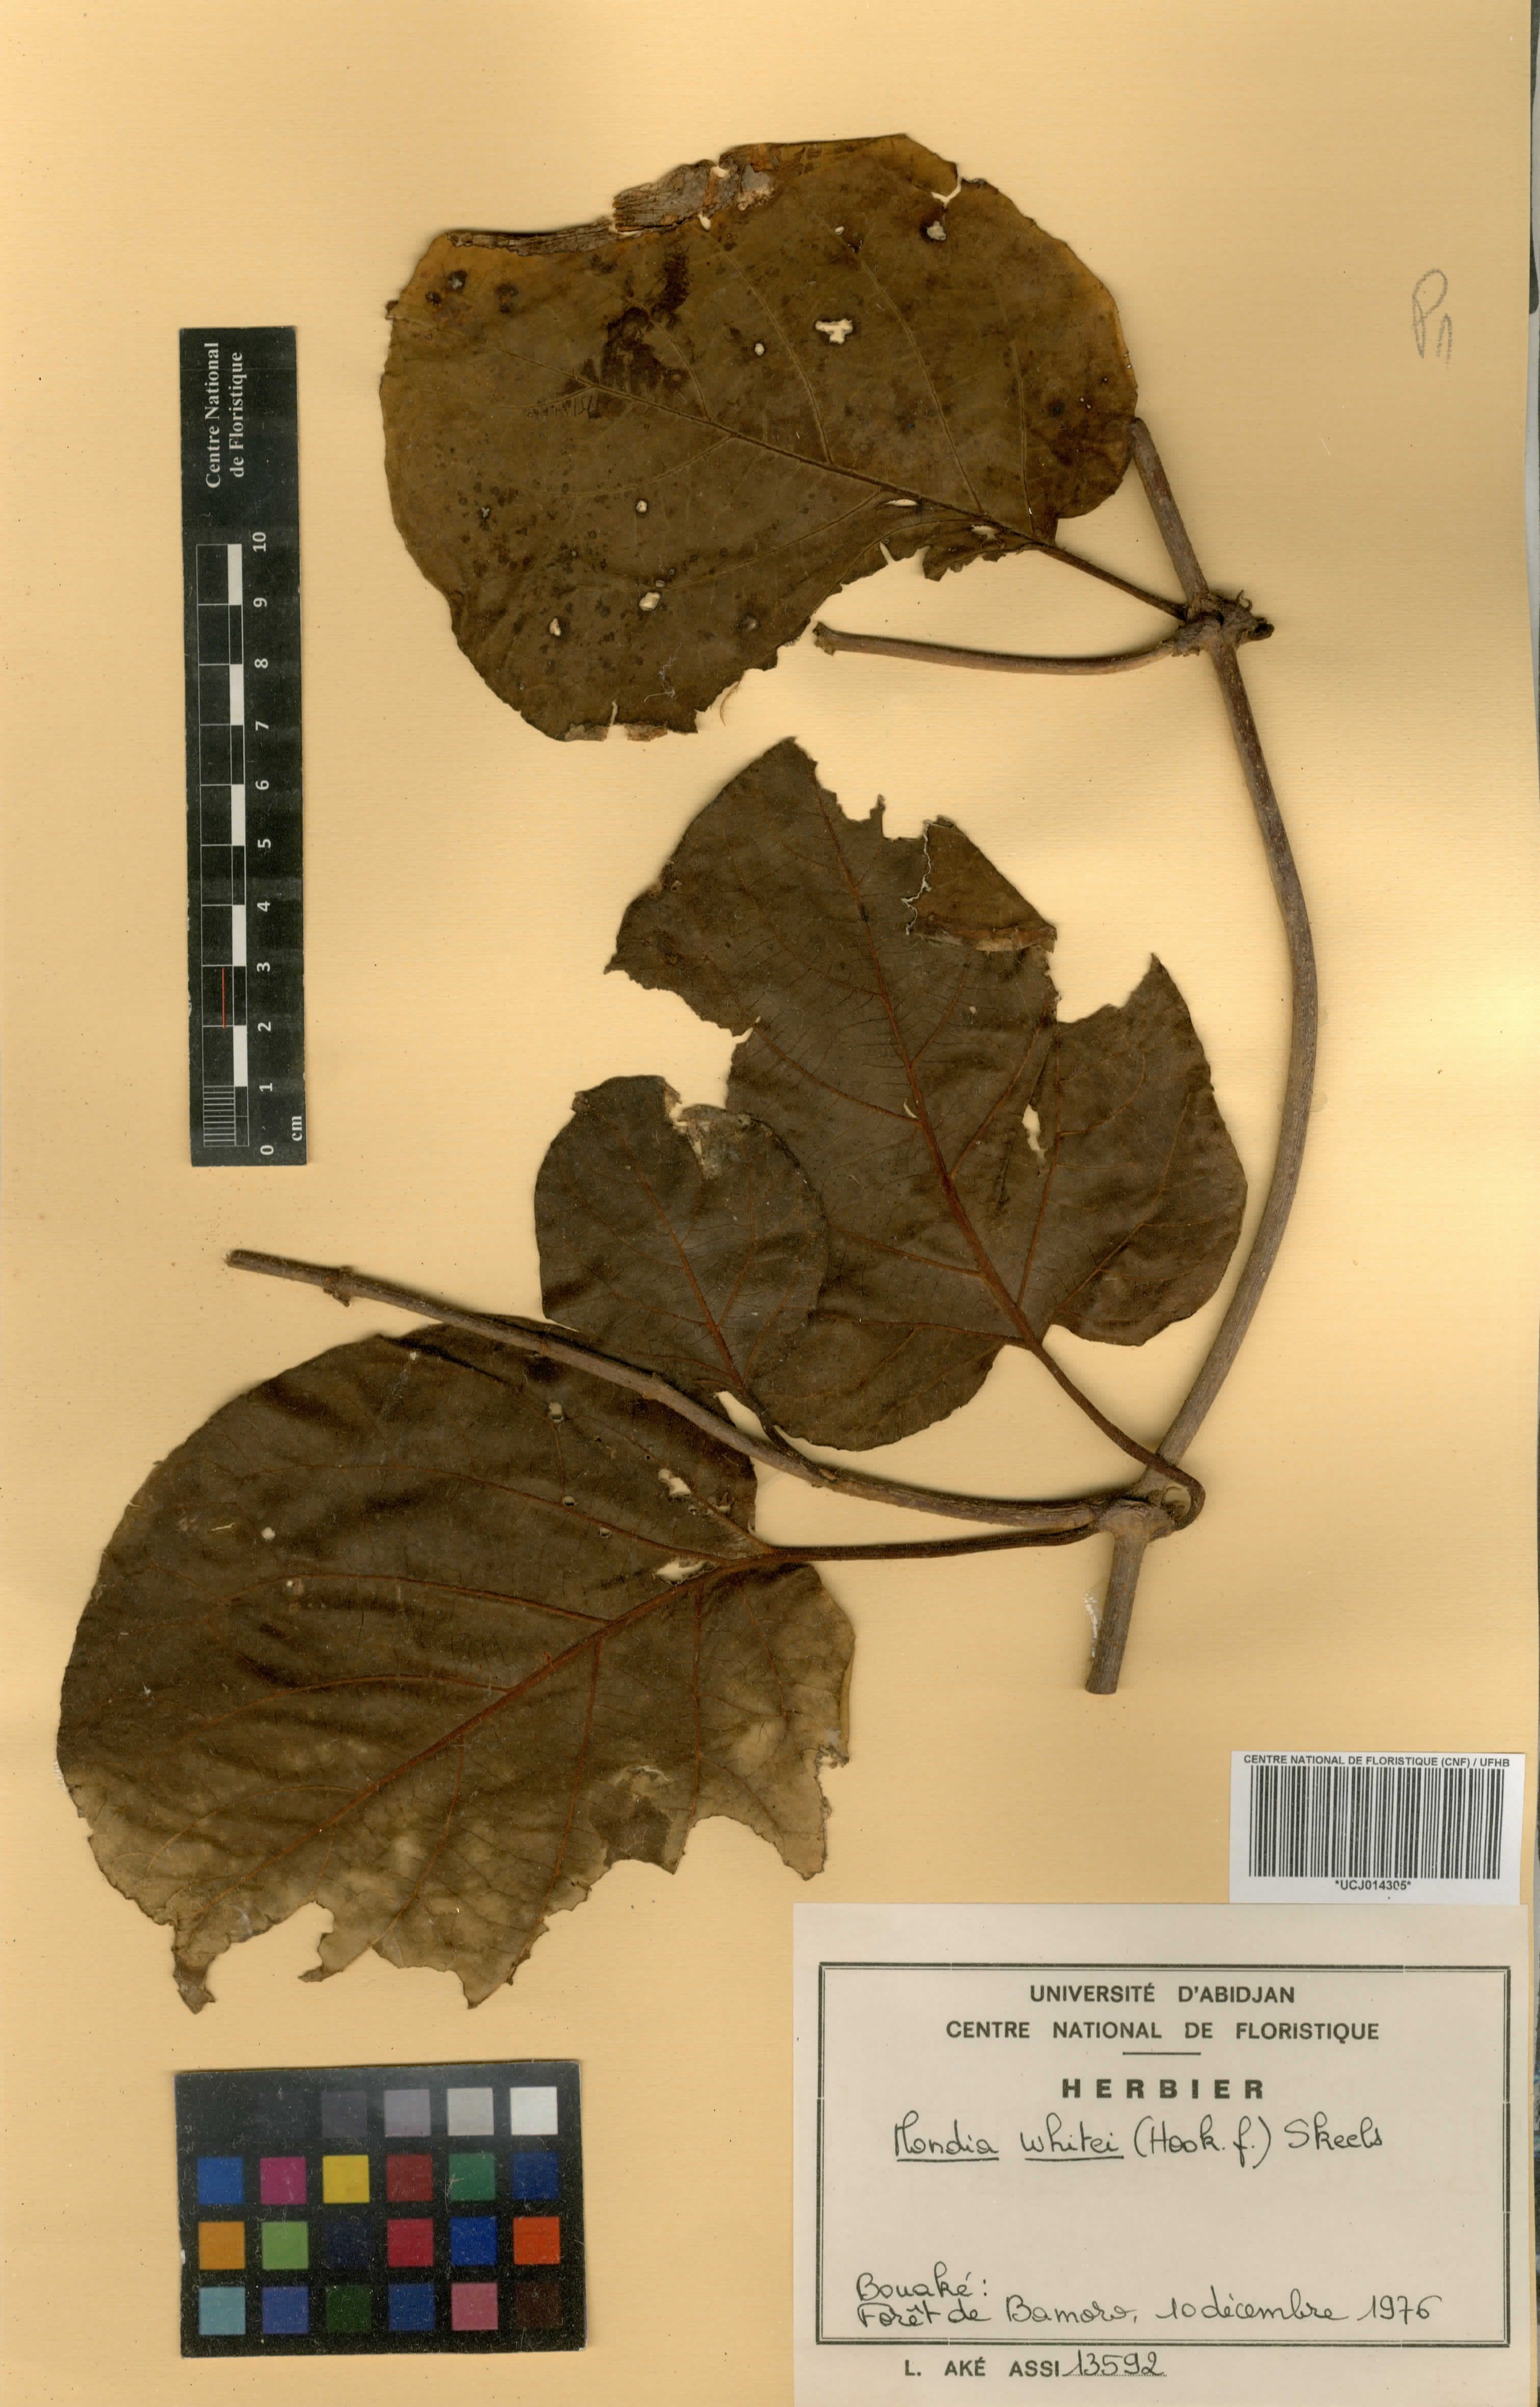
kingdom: Plantae
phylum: Tracheophyta
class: Magnoliopsida
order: Gentianales
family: Apocynaceae
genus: Mondia
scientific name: Mondia whitei
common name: Mondia
